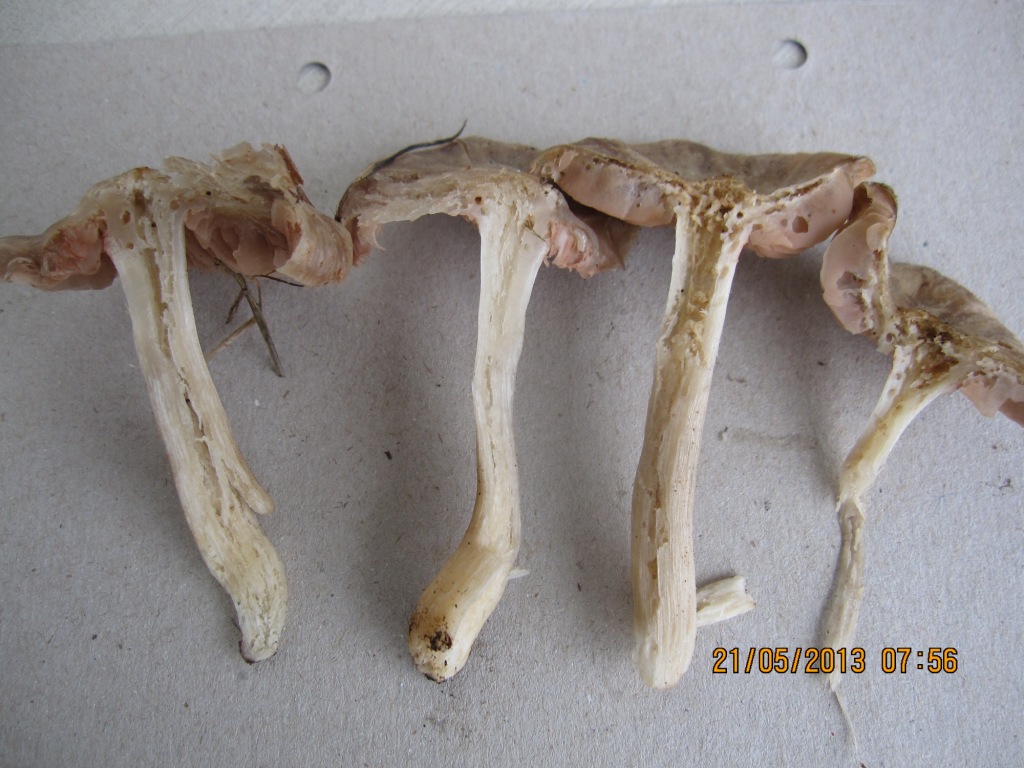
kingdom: Fungi
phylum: Basidiomycota
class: Agaricomycetes
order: Agaricales
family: Entolomataceae
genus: Entoloma
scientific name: Entoloma aprile
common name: maj-rødblad
